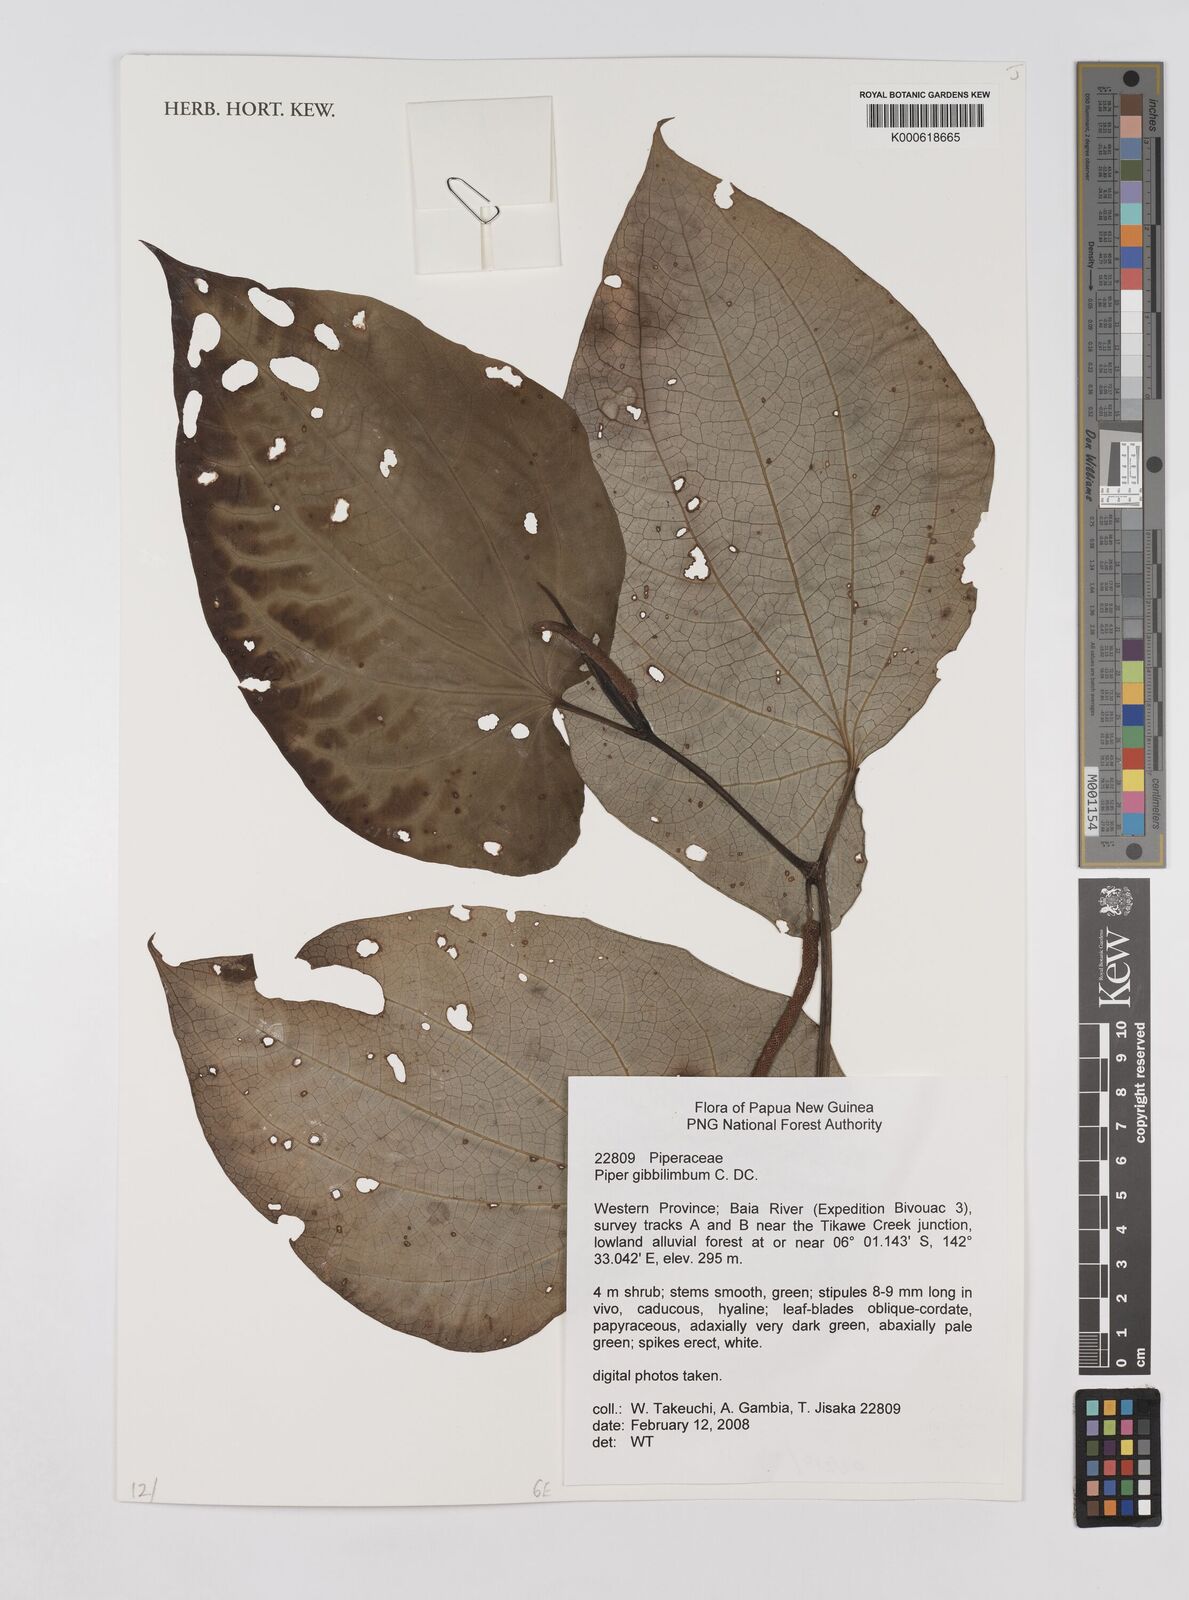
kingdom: Plantae
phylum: Tracheophyta
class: Magnoliopsida
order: Piperales
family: Piperaceae
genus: Piper
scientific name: Piper gibbilimbum
